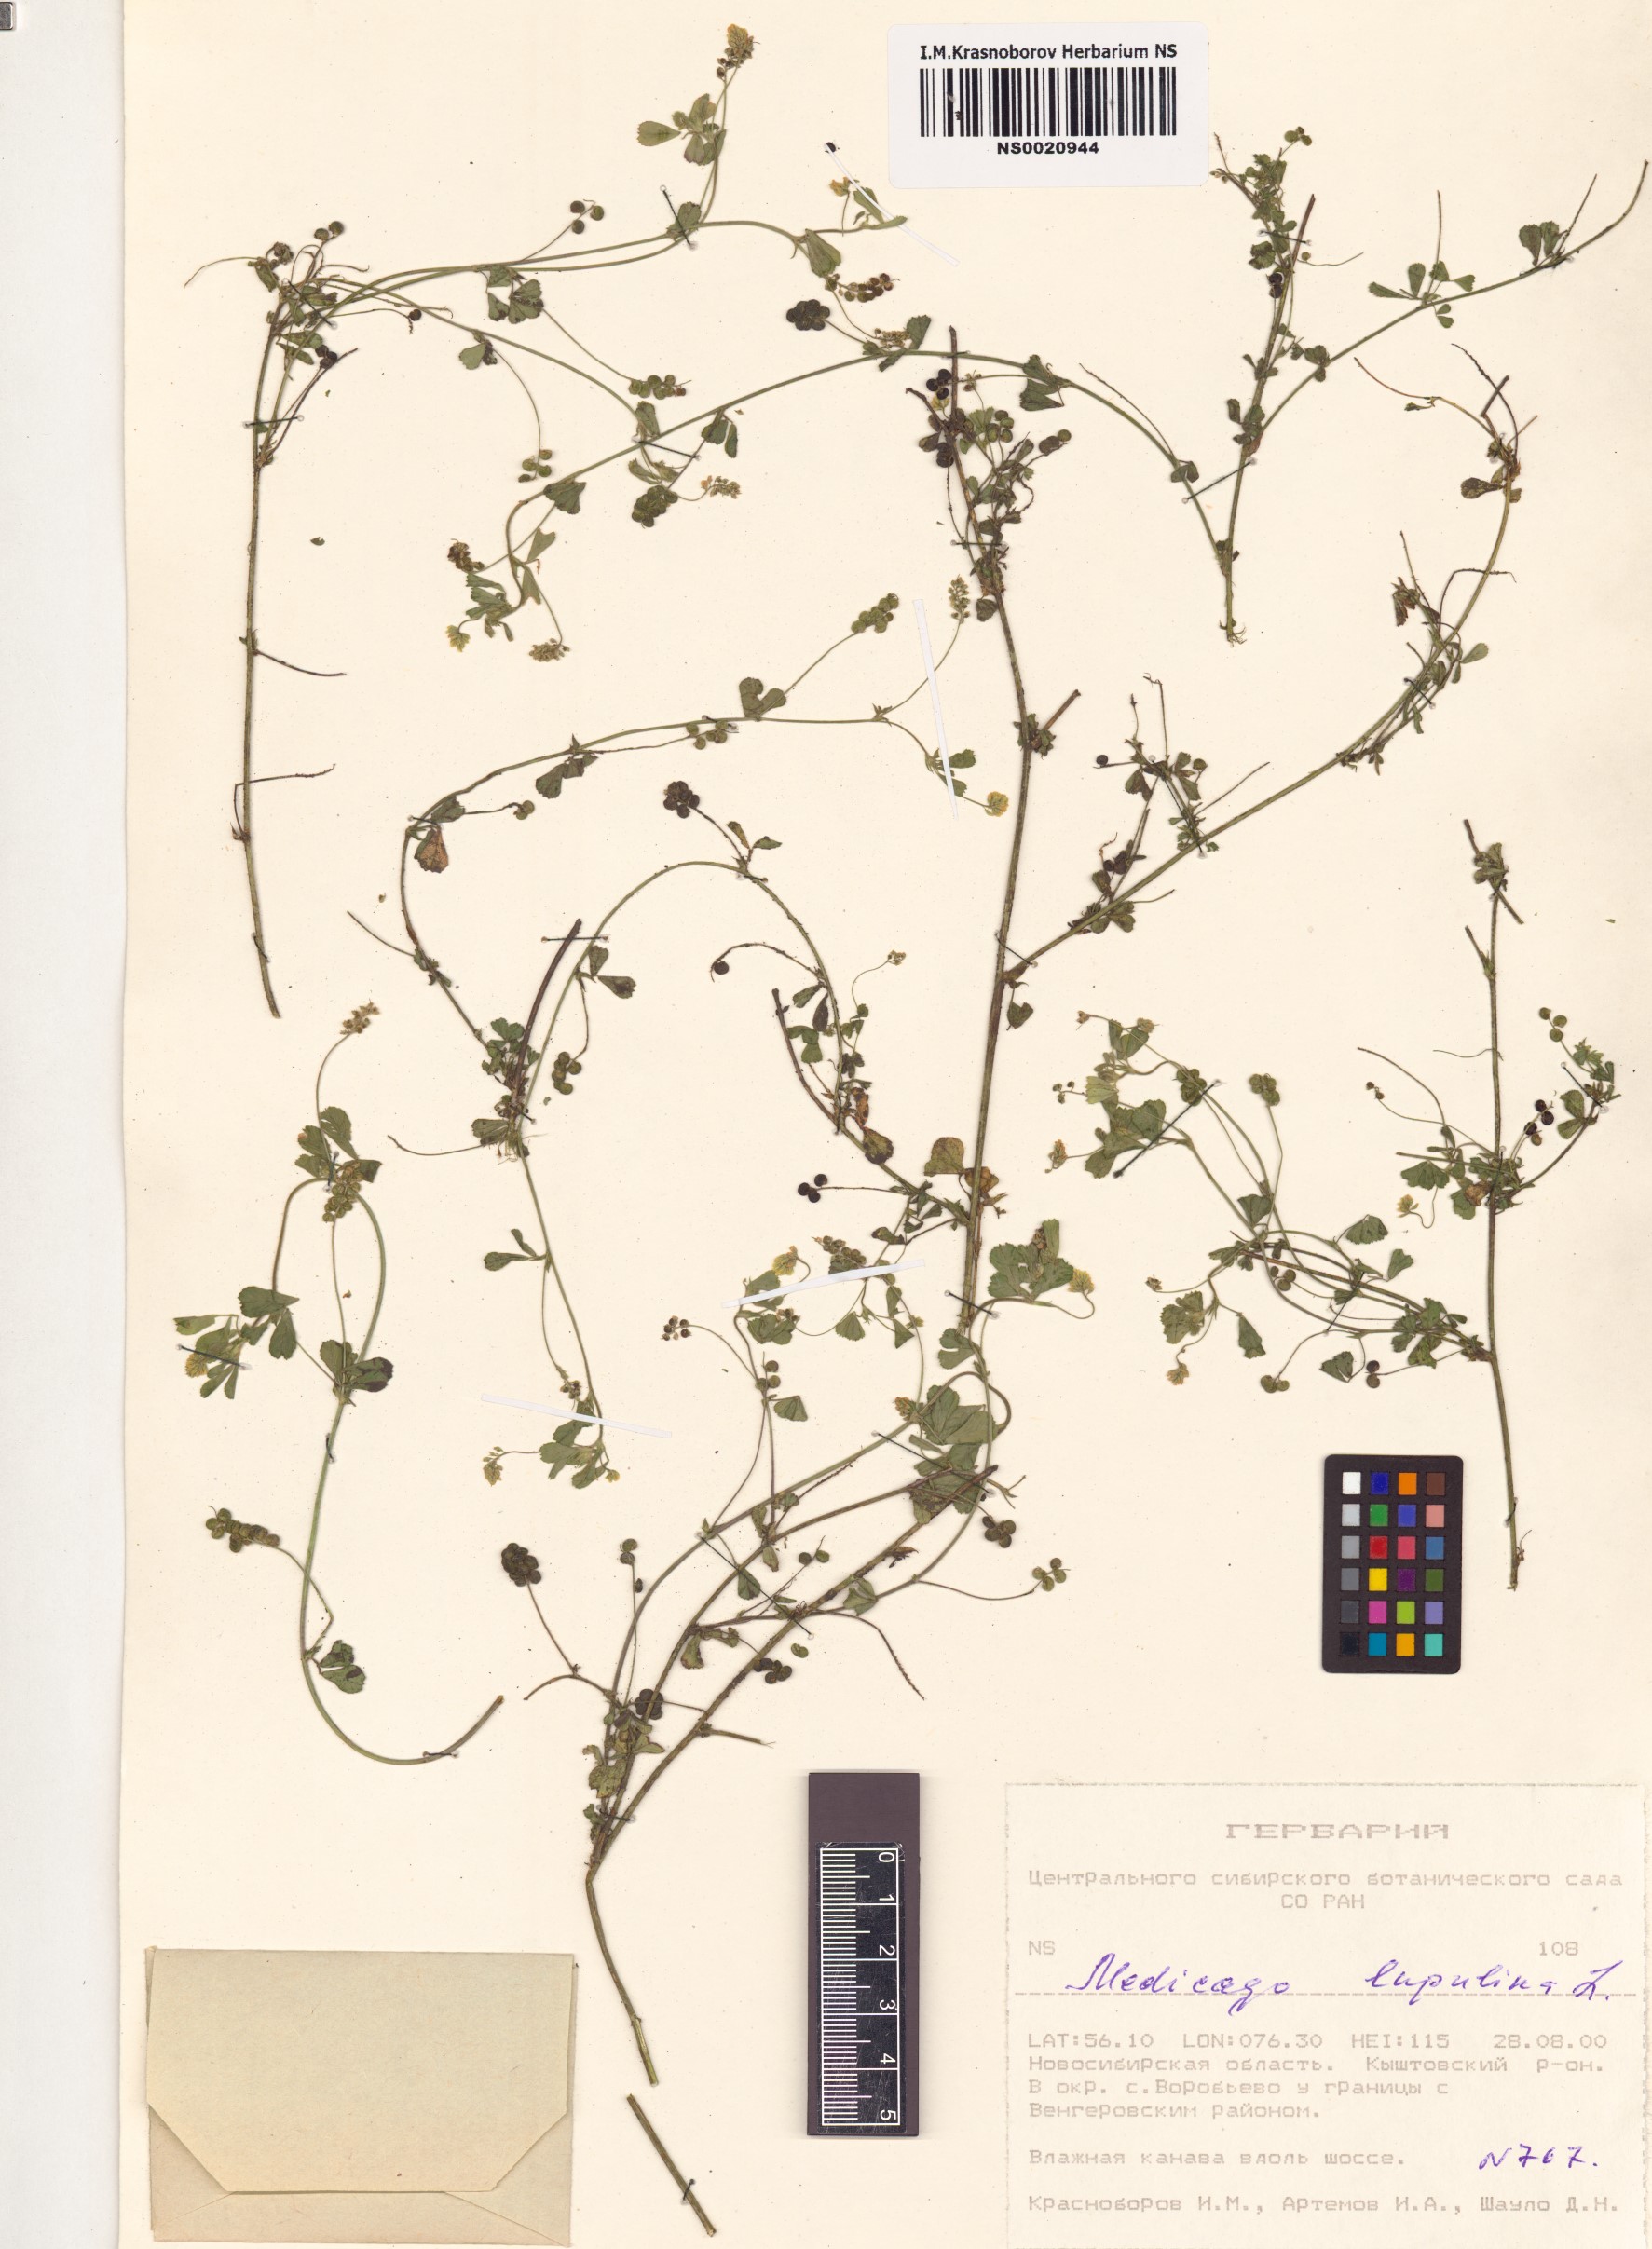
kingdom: Plantae
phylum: Tracheophyta
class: Magnoliopsida
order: Fabales
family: Fabaceae
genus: Medicago
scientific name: Medicago lupulina
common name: Black medick
